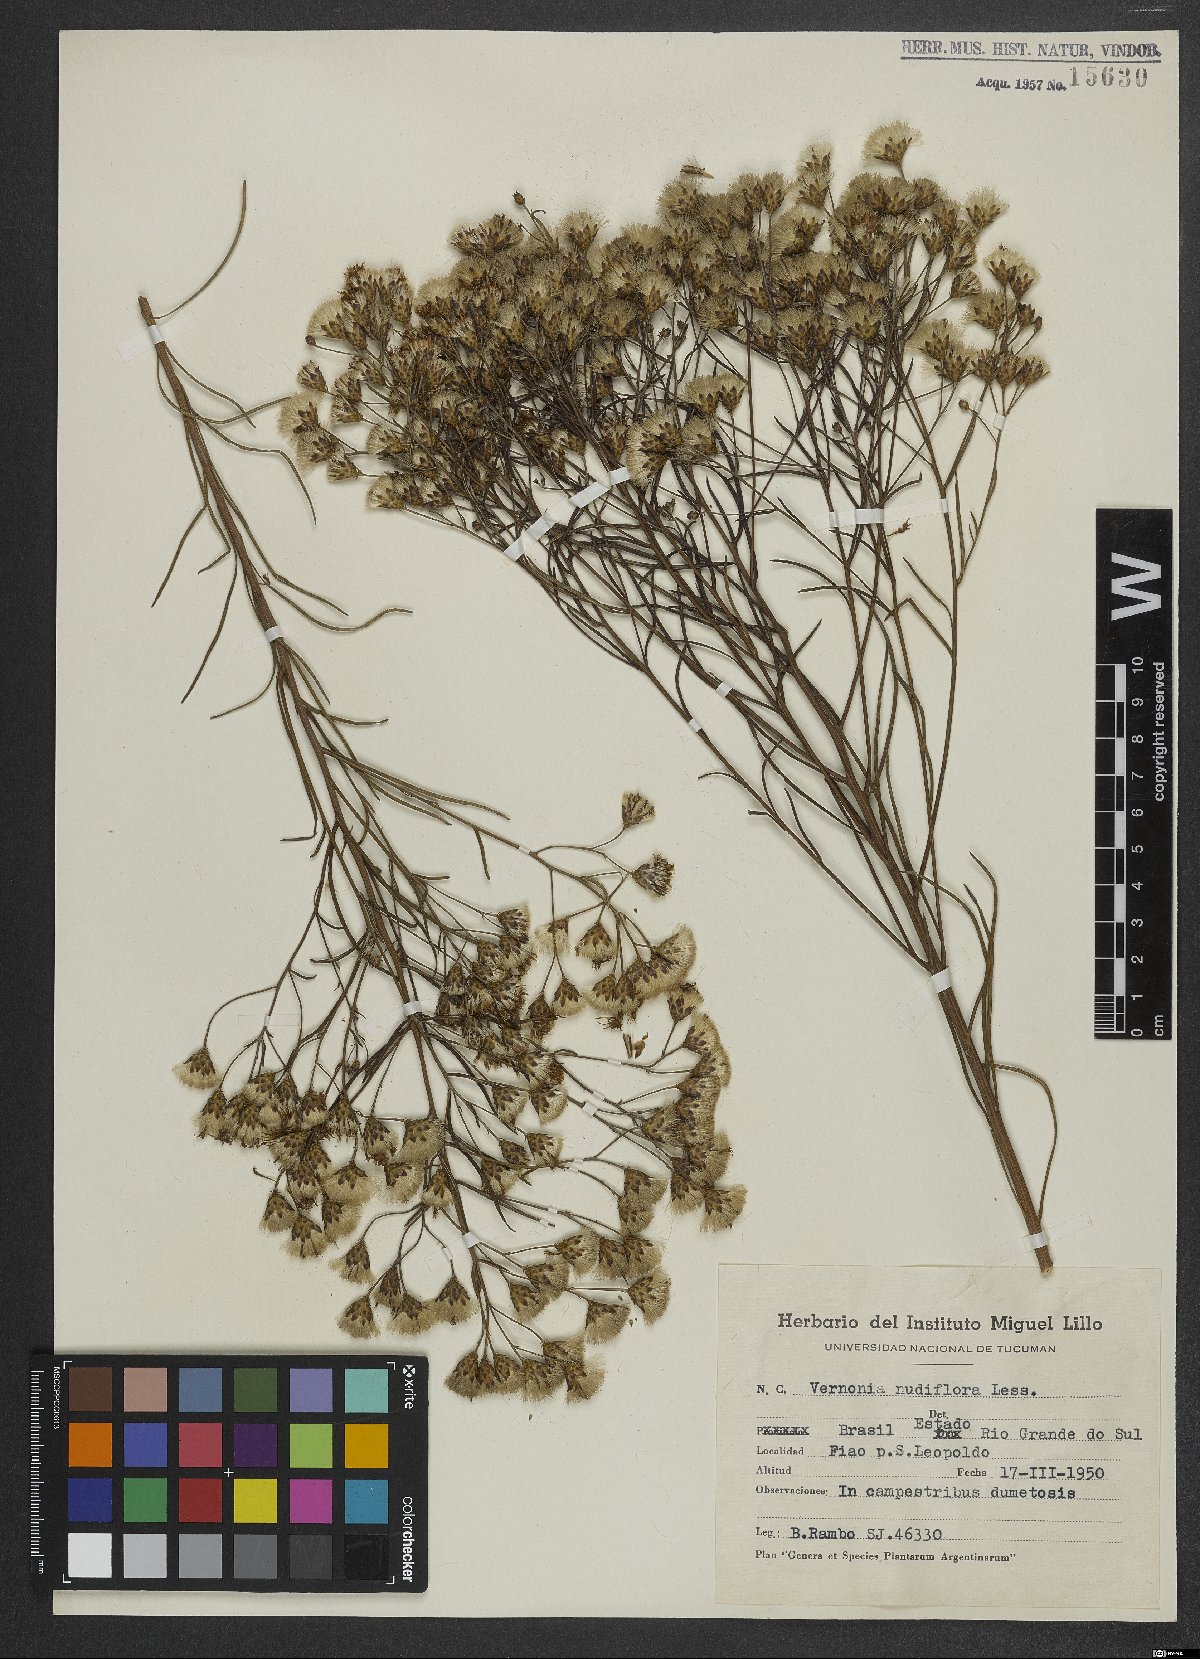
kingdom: Plantae
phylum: Tracheophyta
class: Magnoliopsida
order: Asterales
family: Asteraceae
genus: Vernonanthura
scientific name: Vernonanthura nudiflora
